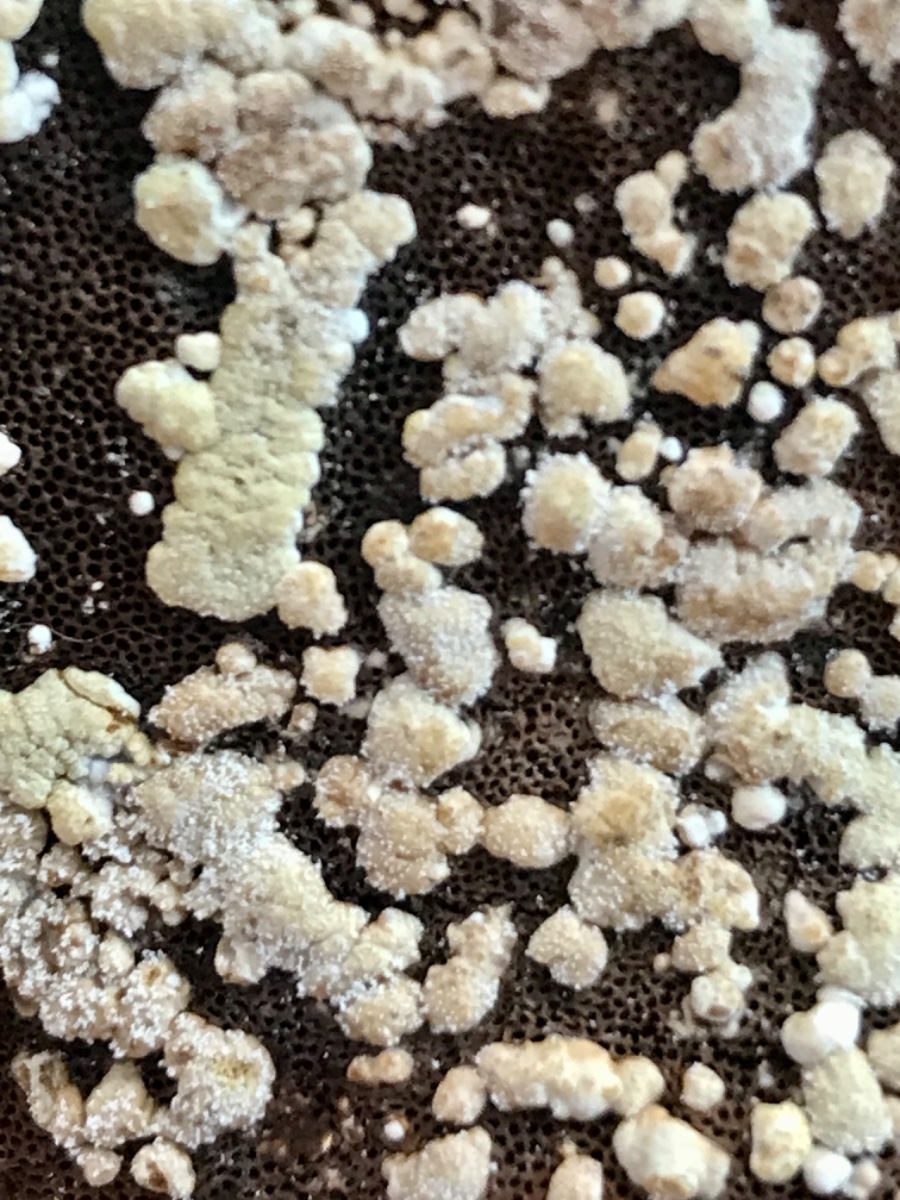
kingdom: Fungi
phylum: Ascomycota
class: Sordariomycetes
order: Hypocreales
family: Hypocreaceae
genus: Trichoderma
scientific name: Trichoderma pulvinatum
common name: snyltende kødkerne
